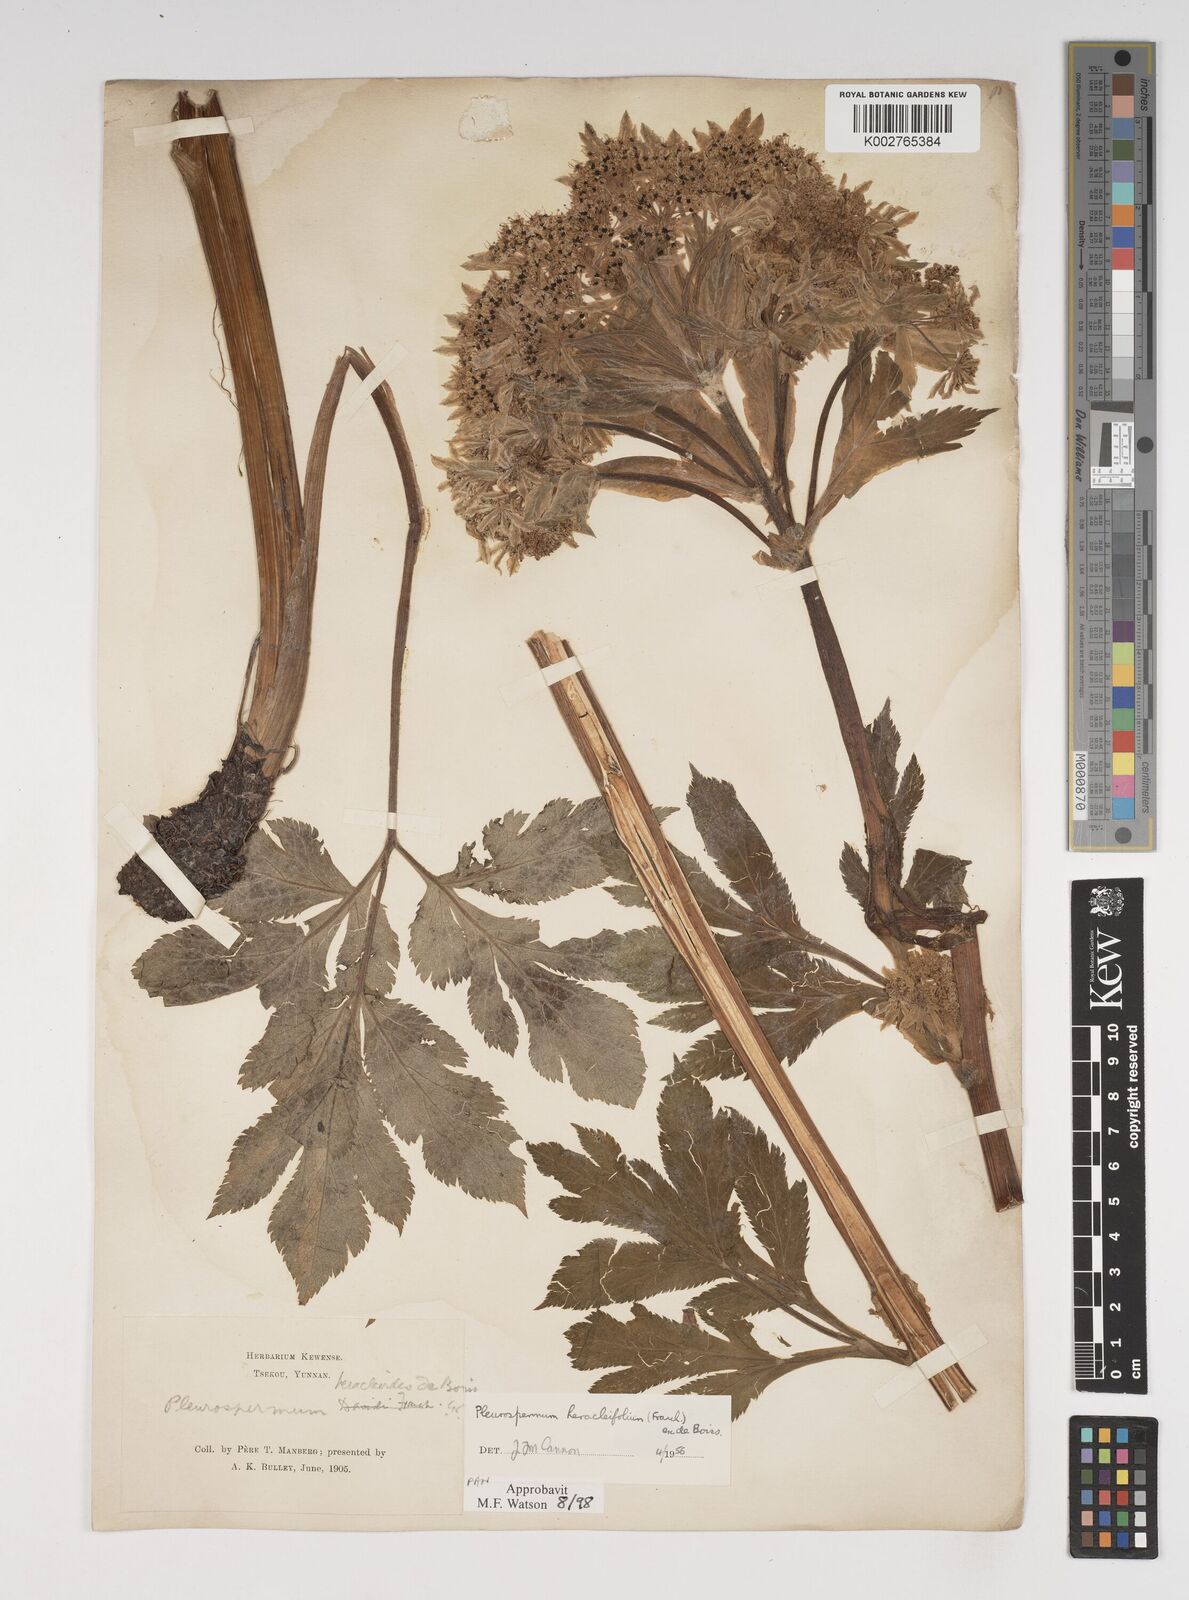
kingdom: Plantae
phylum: Tracheophyta
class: Magnoliopsida
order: Apiales
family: Apiaceae
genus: Hymenidium
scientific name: Hymenidium heracleifolium
